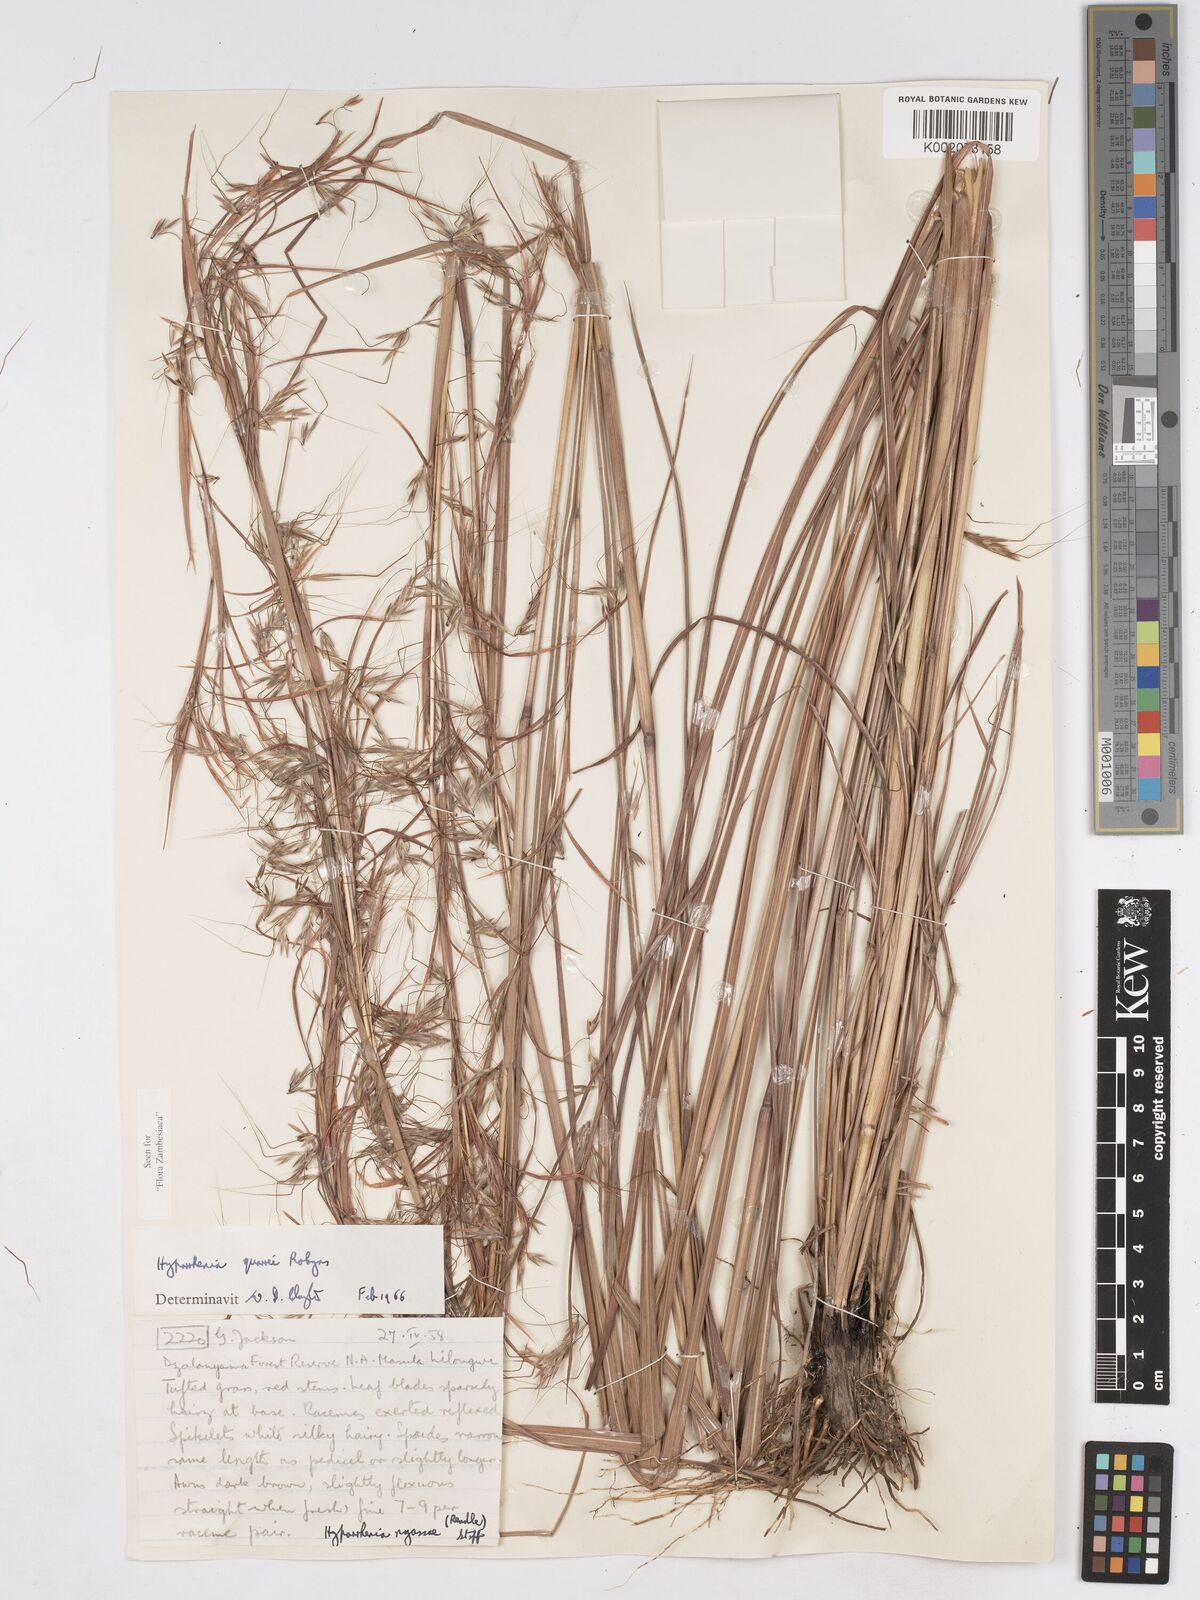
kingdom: Plantae
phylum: Tracheophyta
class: Liliopsida
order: Poales
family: Poaceae
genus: Hyparrhenia
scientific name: Hyparrhenia quarrei
